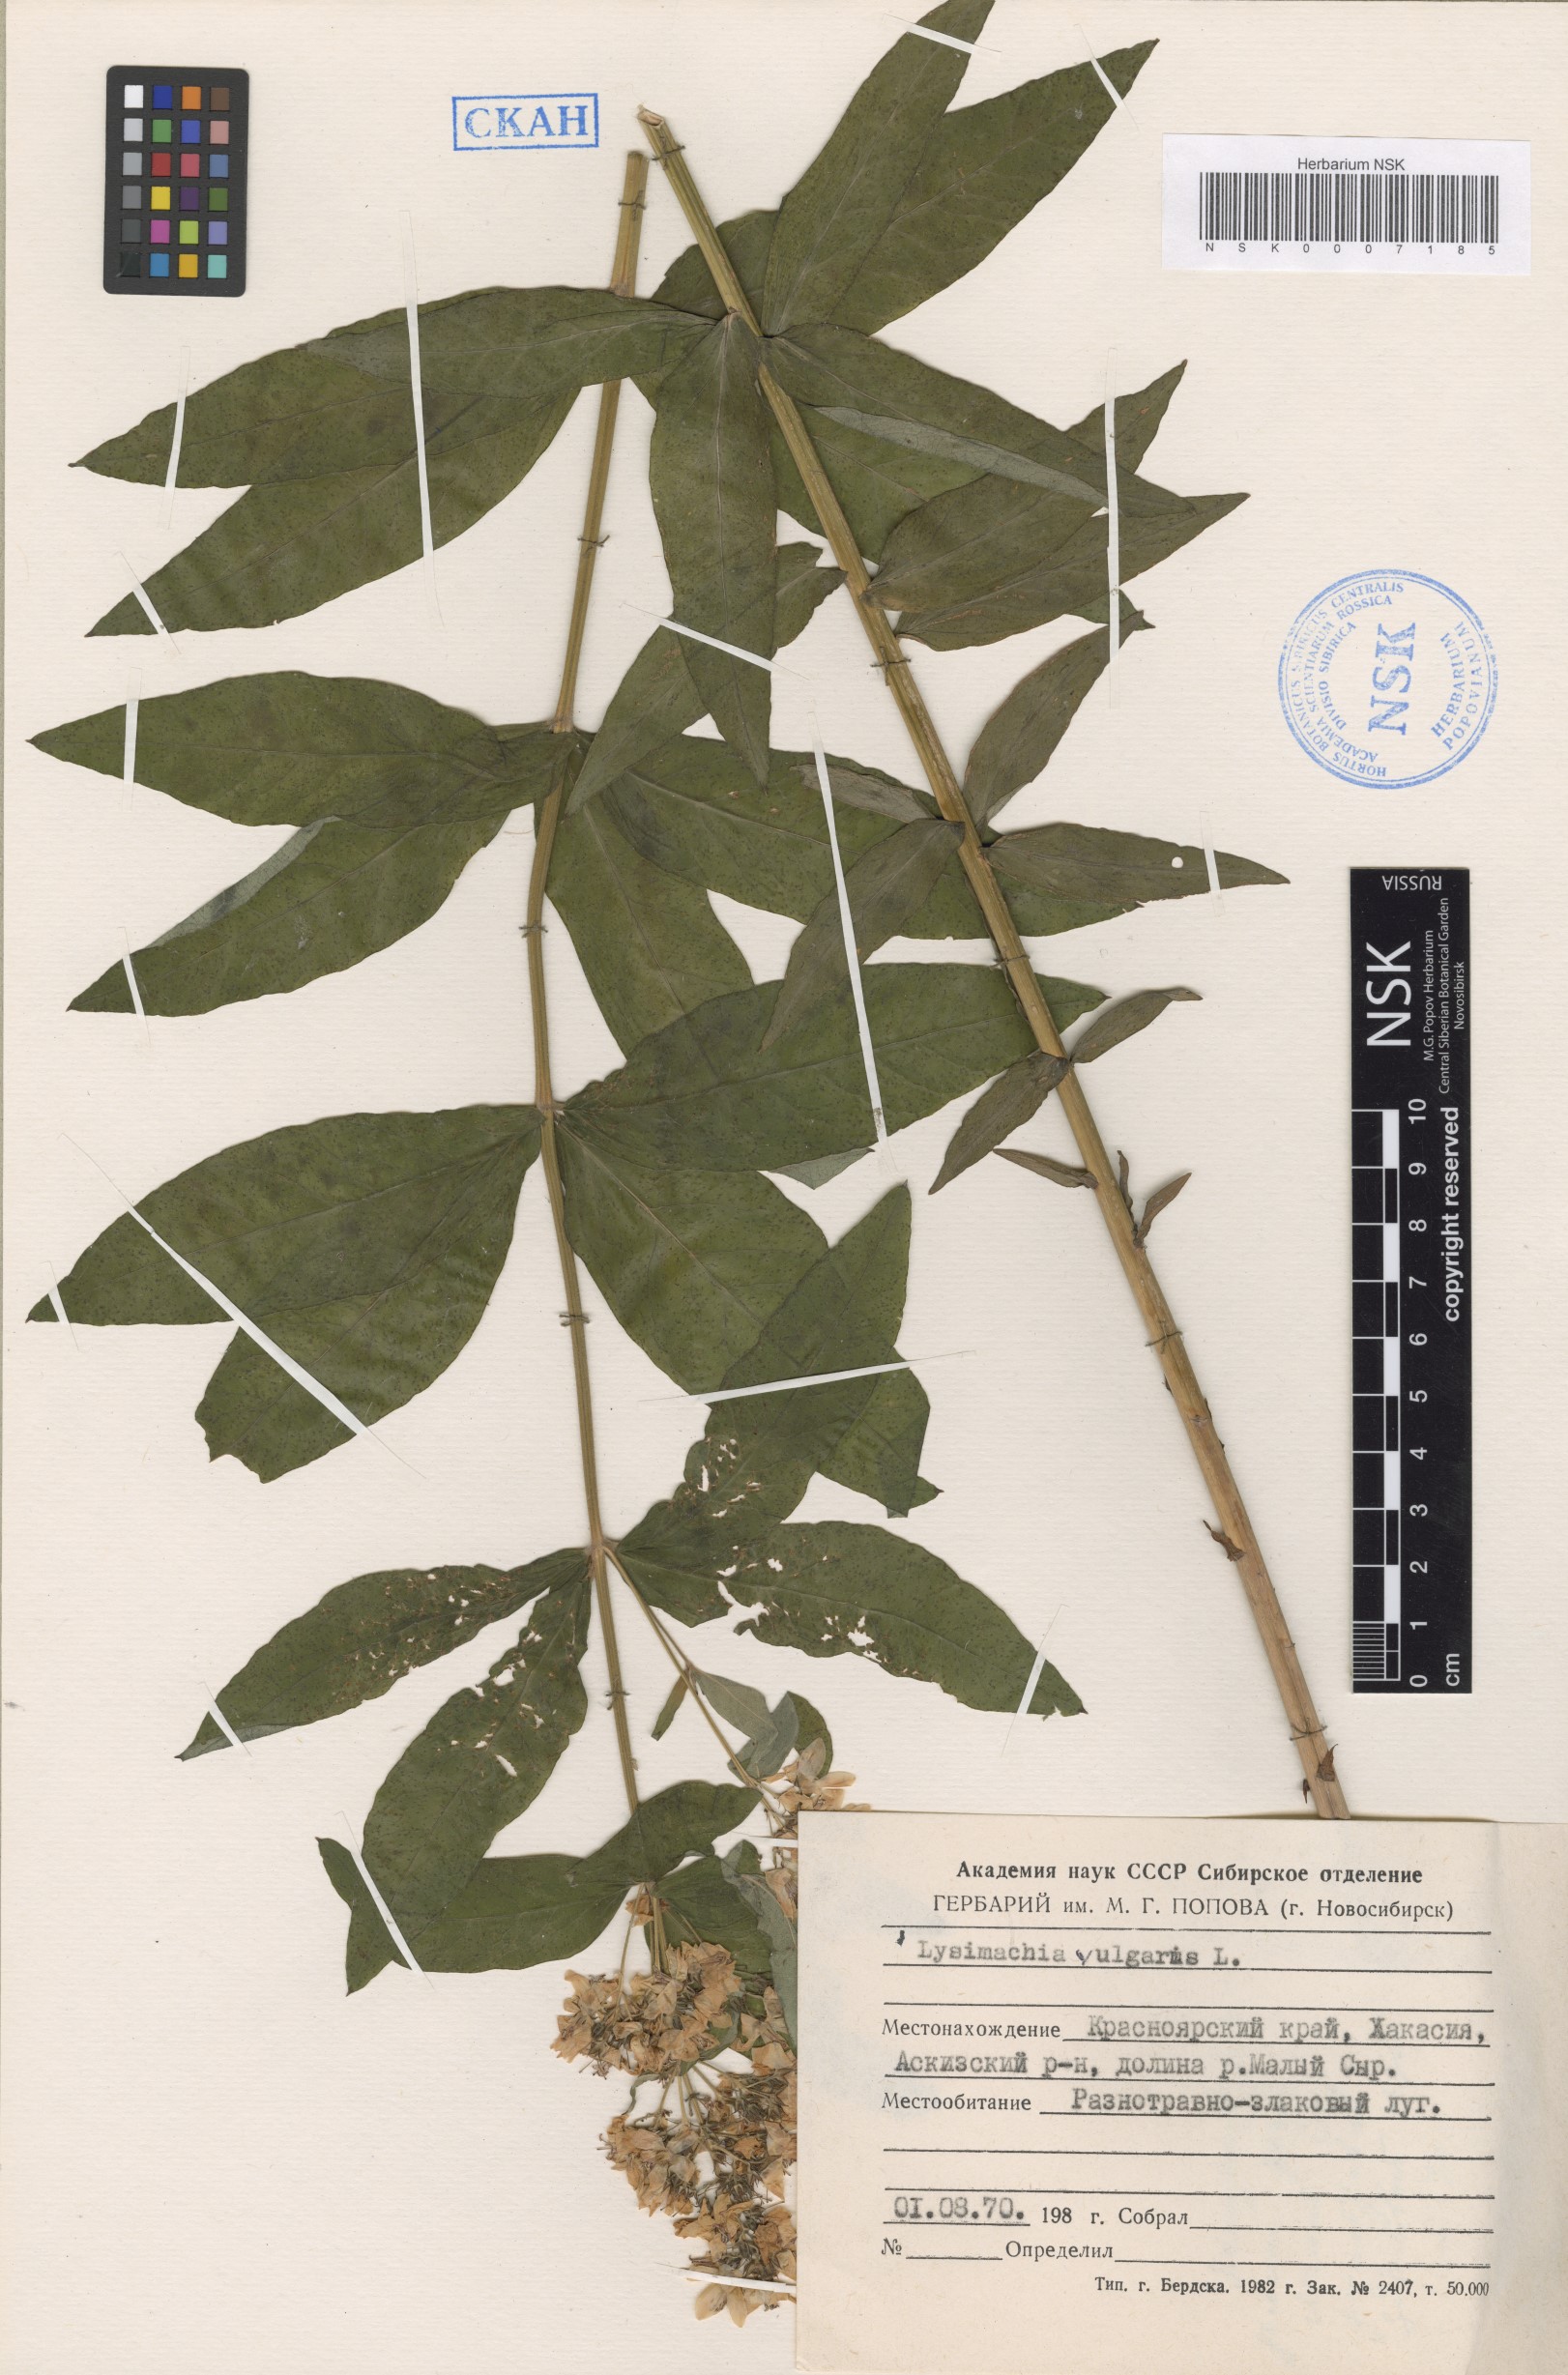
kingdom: Plantae
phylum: Tracheophyta
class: Magnoliopsida
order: Ericales
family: Primulaceae
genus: Lysimachia
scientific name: Lysimachia vulgaris
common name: Yellow loosestrife
